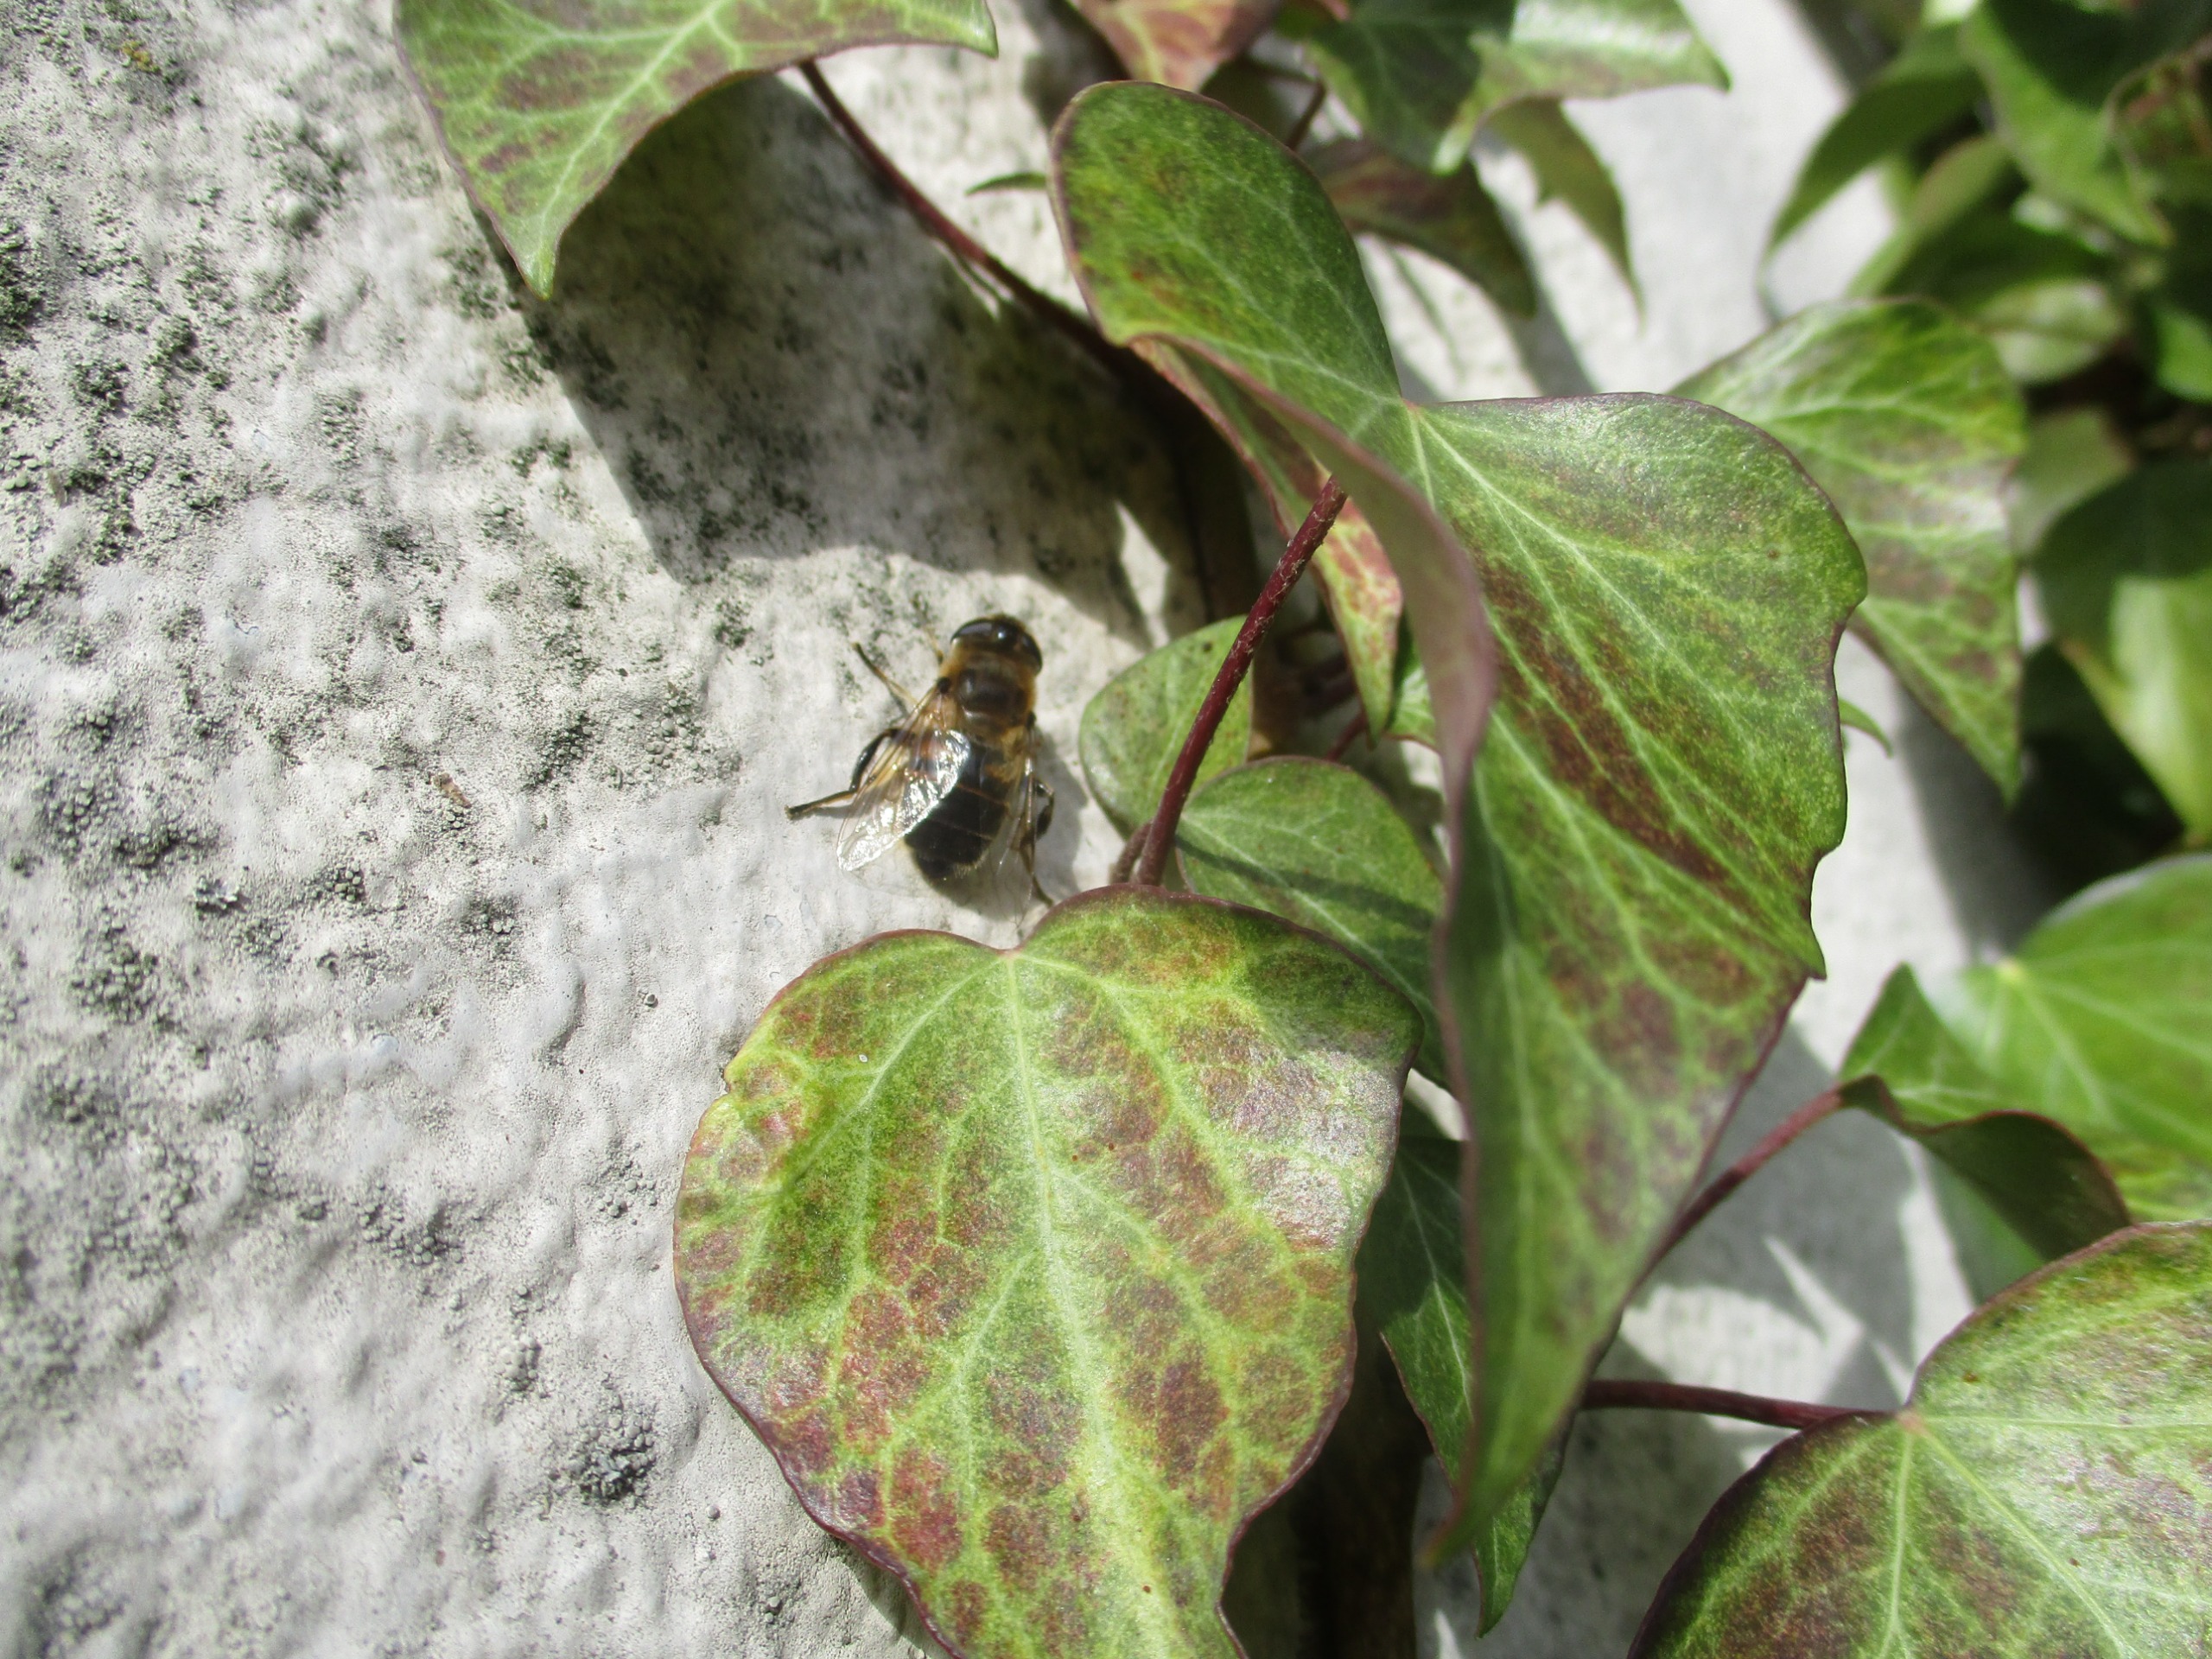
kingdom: Animalia
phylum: Arthropoda
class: Insecta
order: Diptera
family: Syrphidae
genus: Eristalis
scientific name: Eristalis tenax
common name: Droneflue
